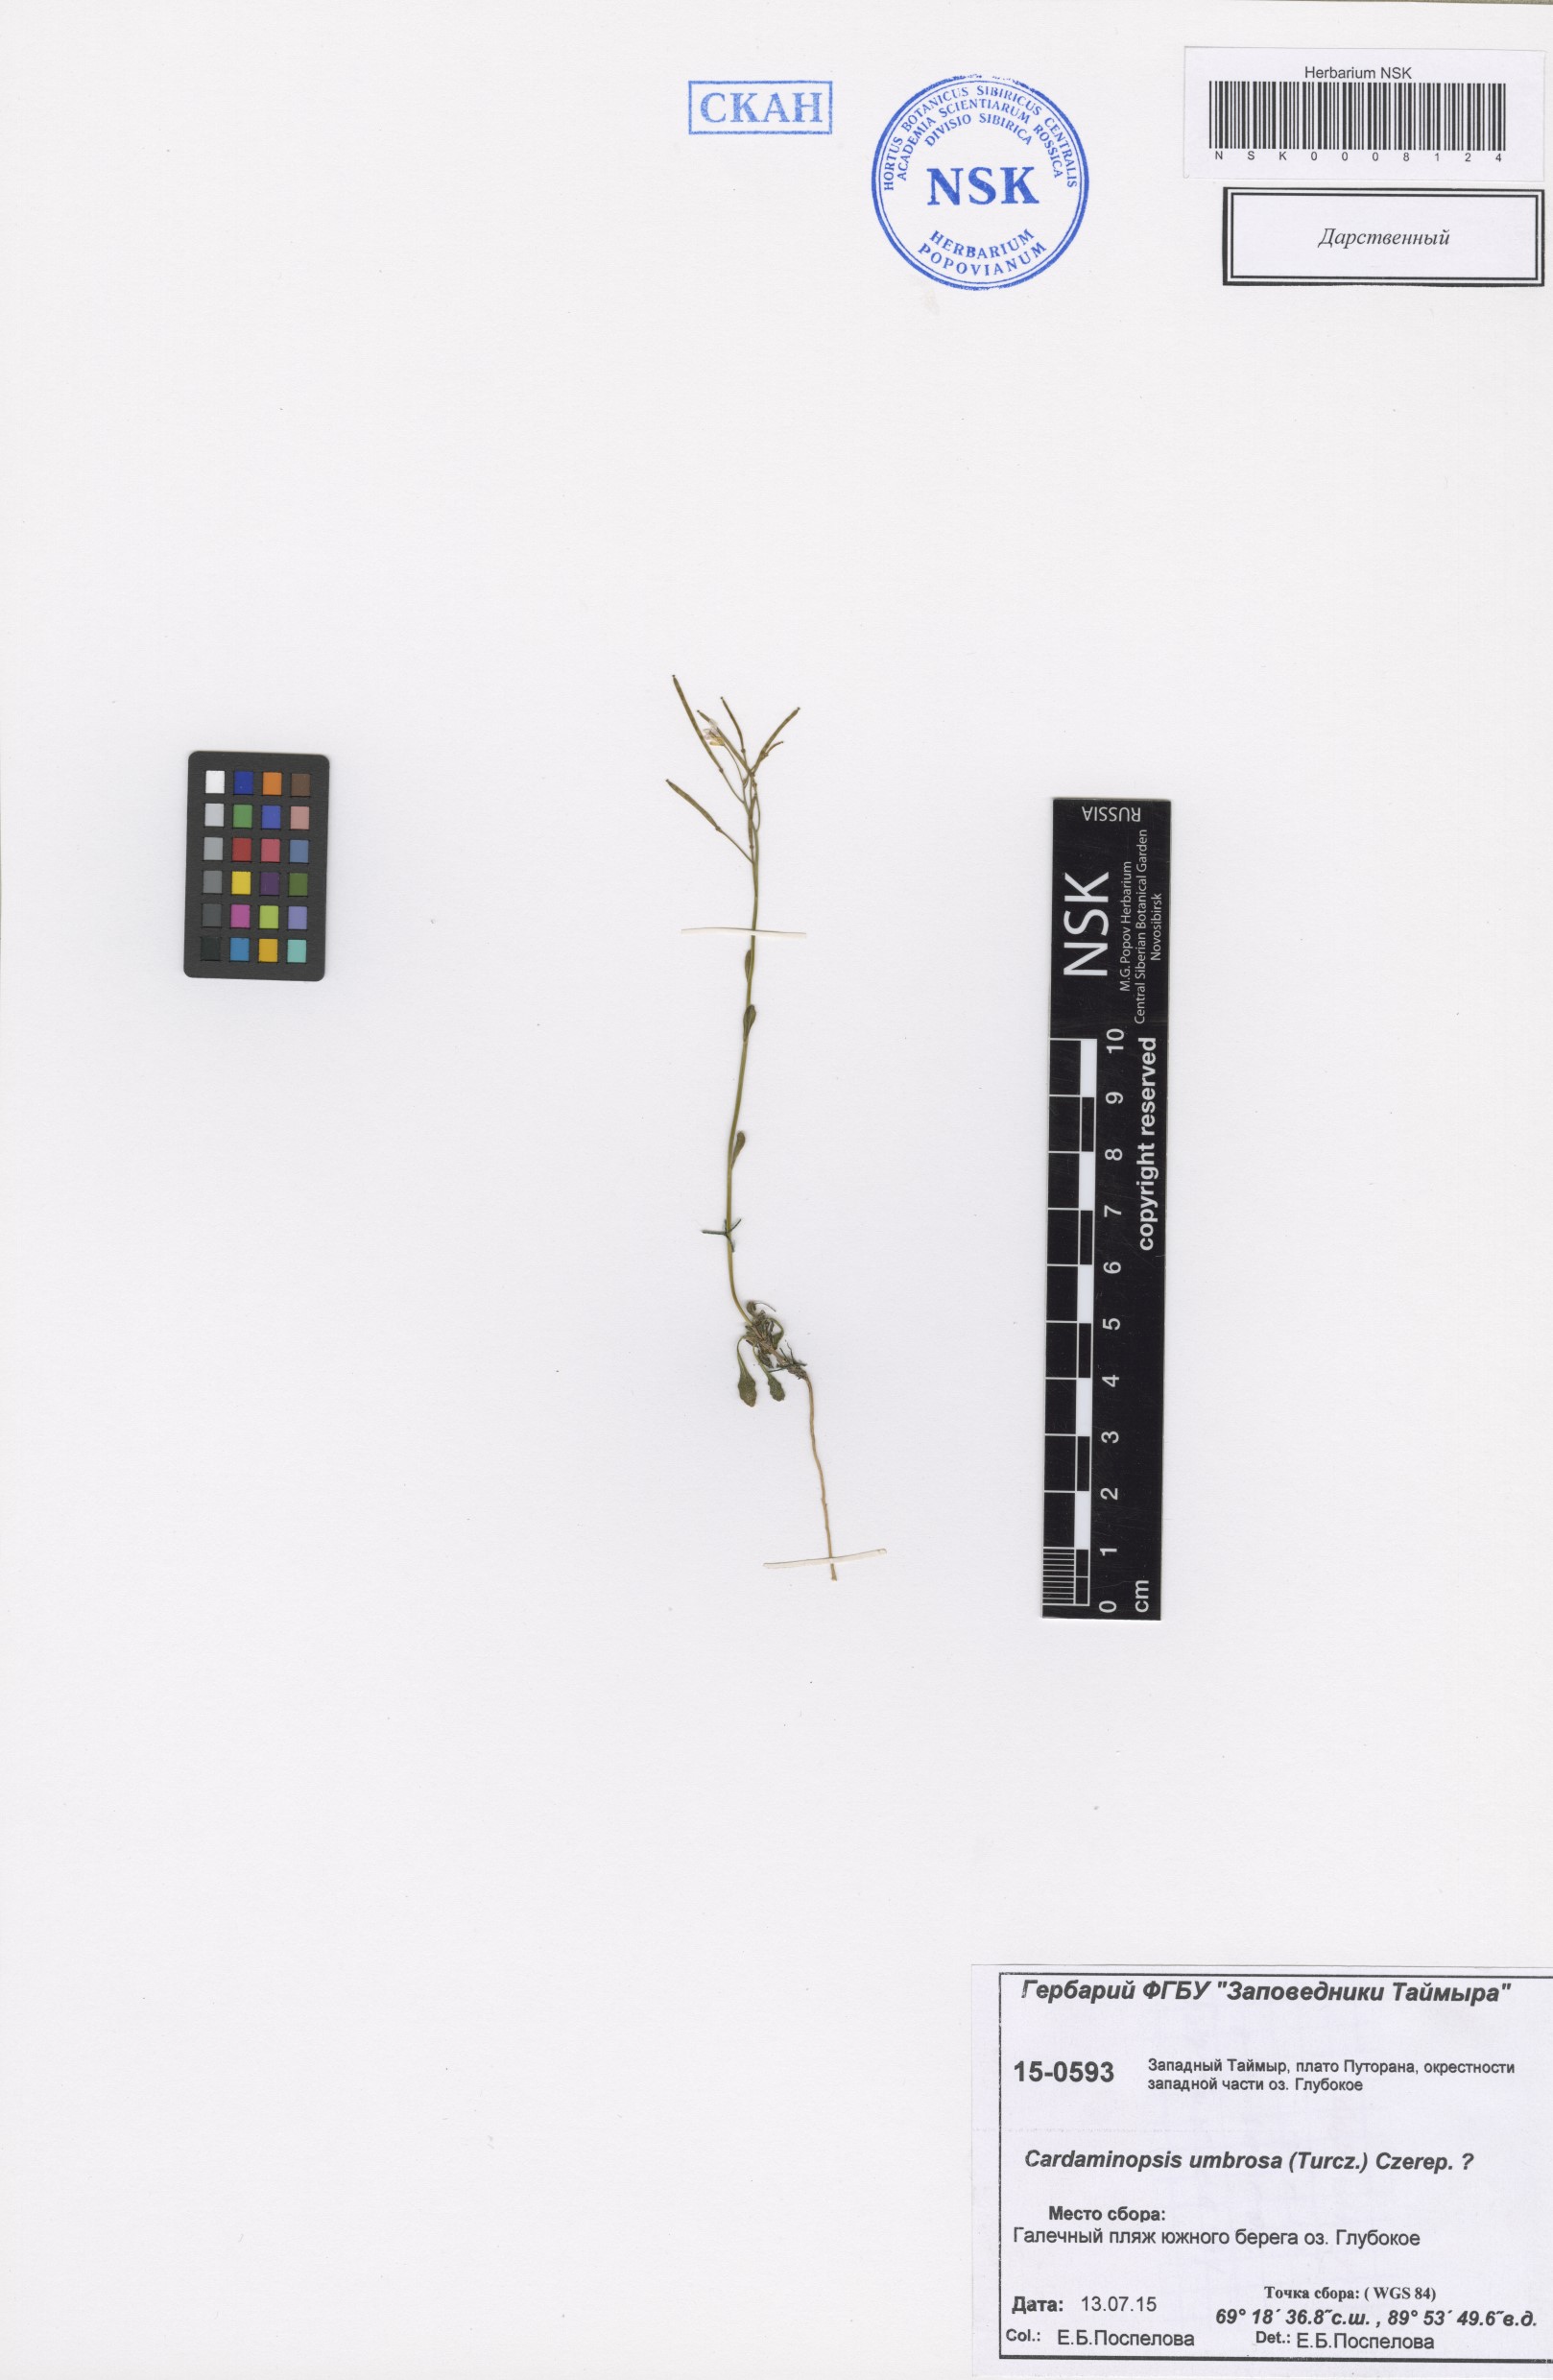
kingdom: Plantae
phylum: Tracheophyta
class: Magnoliopsida
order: Brassicales
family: Brassicaceae
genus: Arabidopsis
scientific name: Arabidopsis lyrata
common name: Lyrate rockcress
